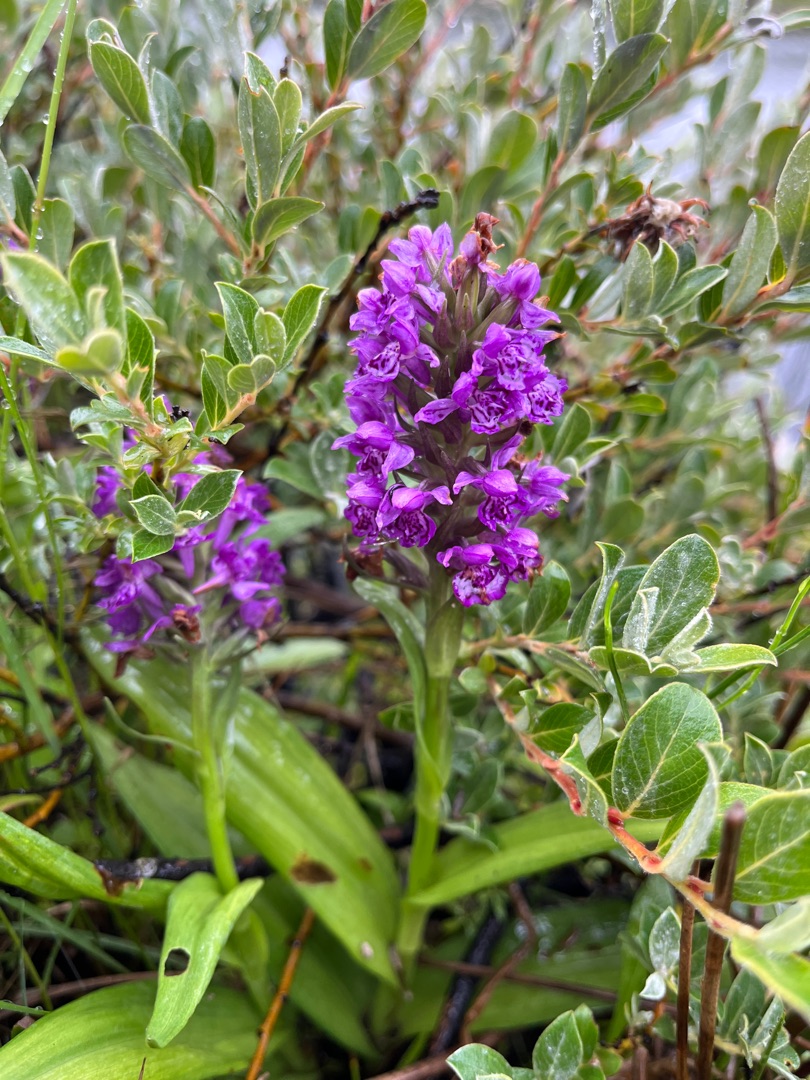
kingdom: Plantae
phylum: Tracheophyta
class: Liliopsida
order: Asparagales
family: Orchidaceae
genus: Dactylorhiza
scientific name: Dactylorhiza majalis
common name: Purpur-gøgeurt
